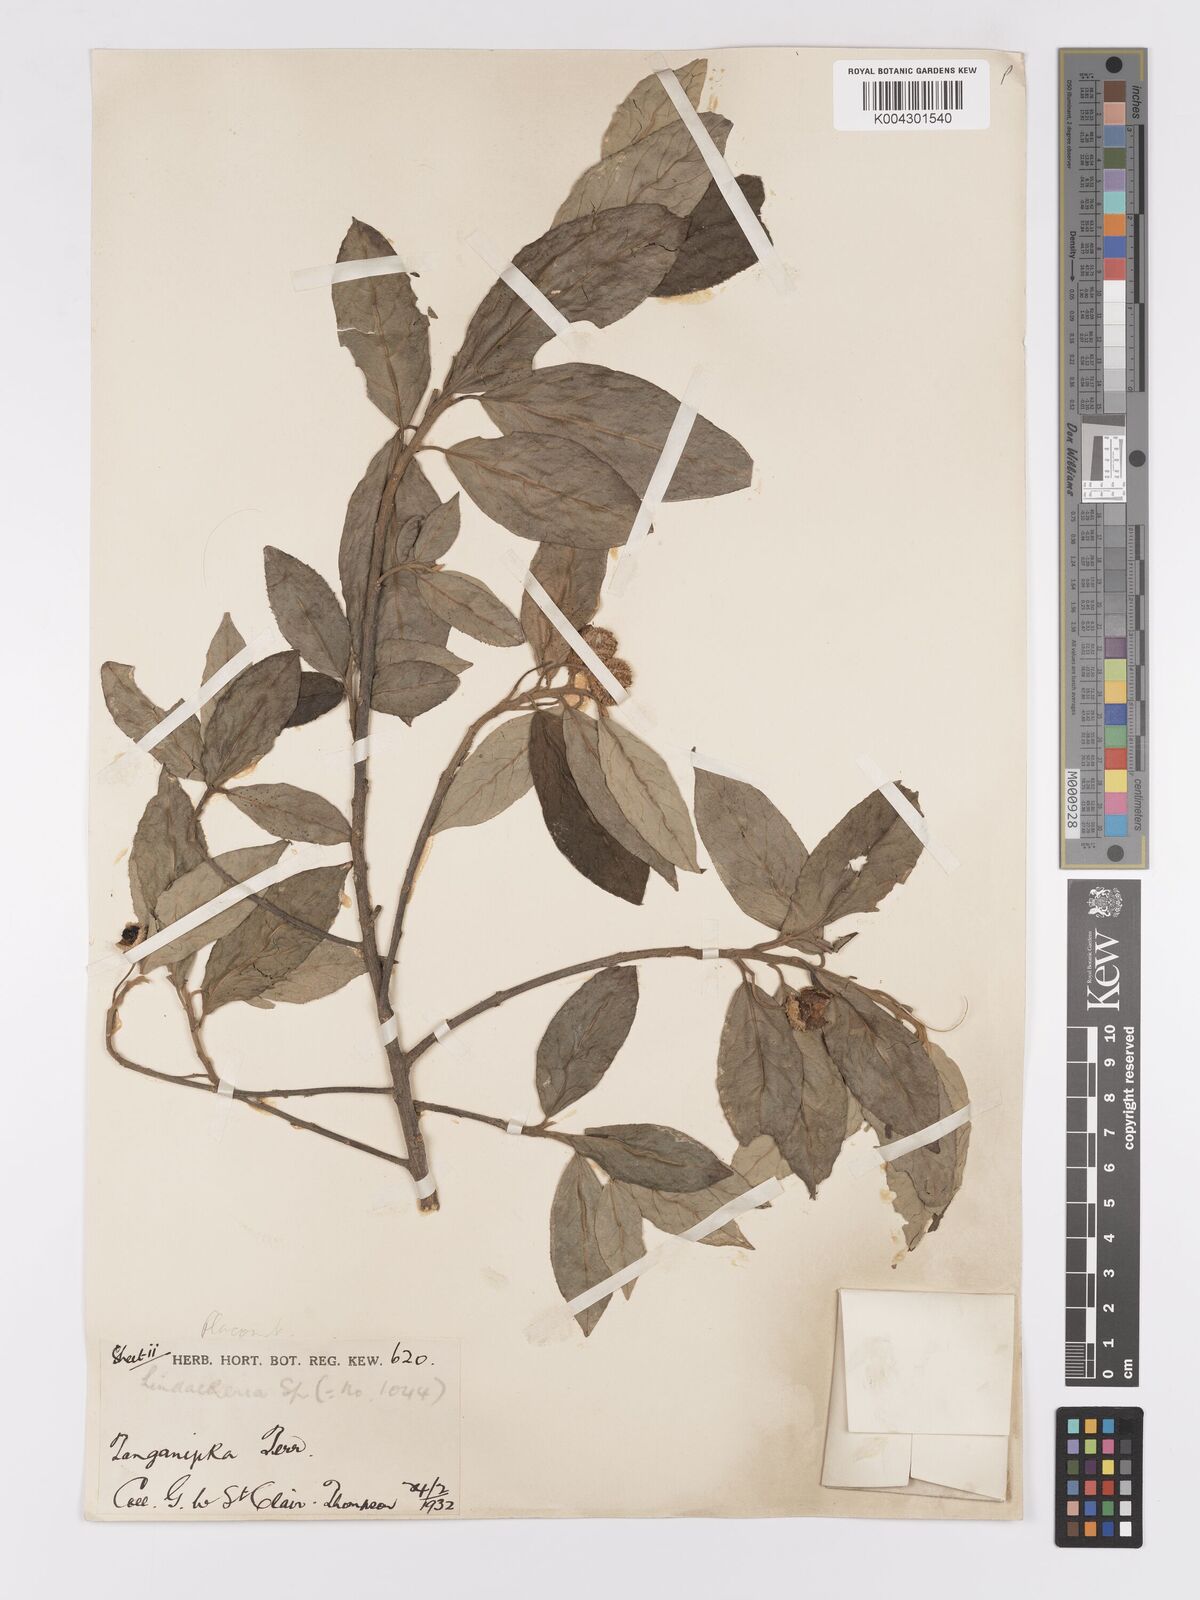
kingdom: Plantae
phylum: Tracheophyta
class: Magnoliopsida
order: Malpighiales
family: Achariaceae
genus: Kiggelaria
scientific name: Kiggelaria africana
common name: Wild peach
